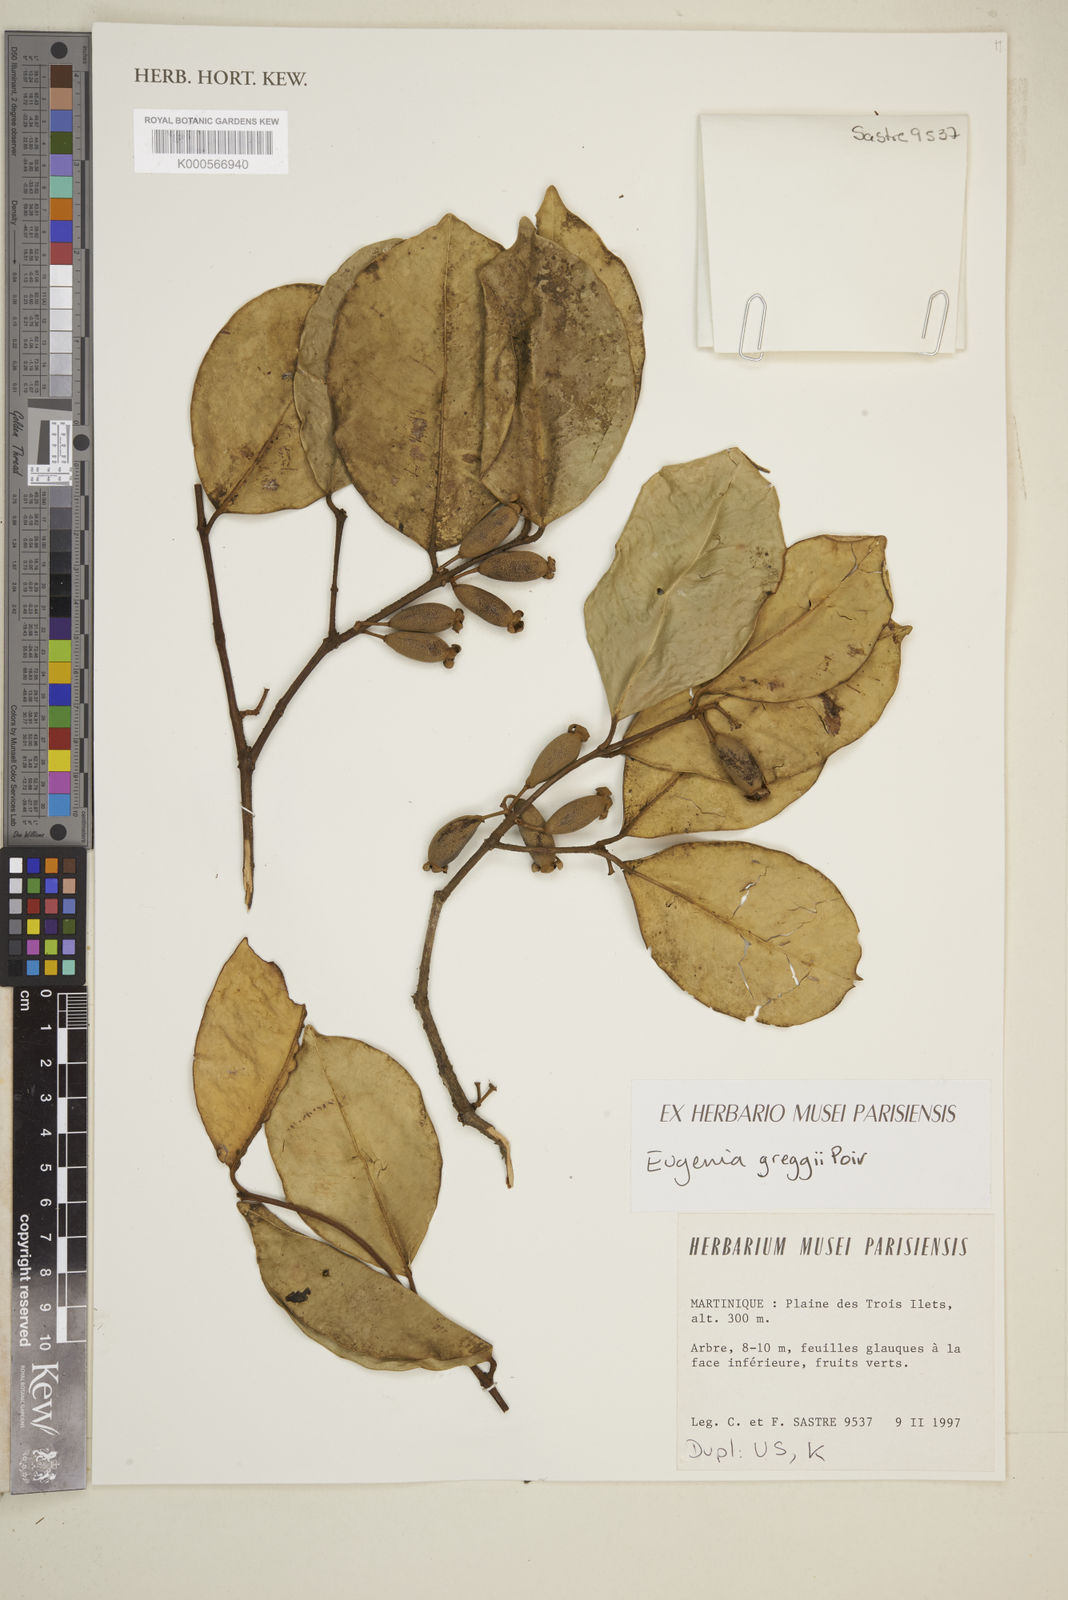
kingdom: Plantae
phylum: Tracheophyta
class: Magnoliopsida
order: Myrtales
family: Myrtaceae
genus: Eugenia
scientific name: Eugenia greggii
